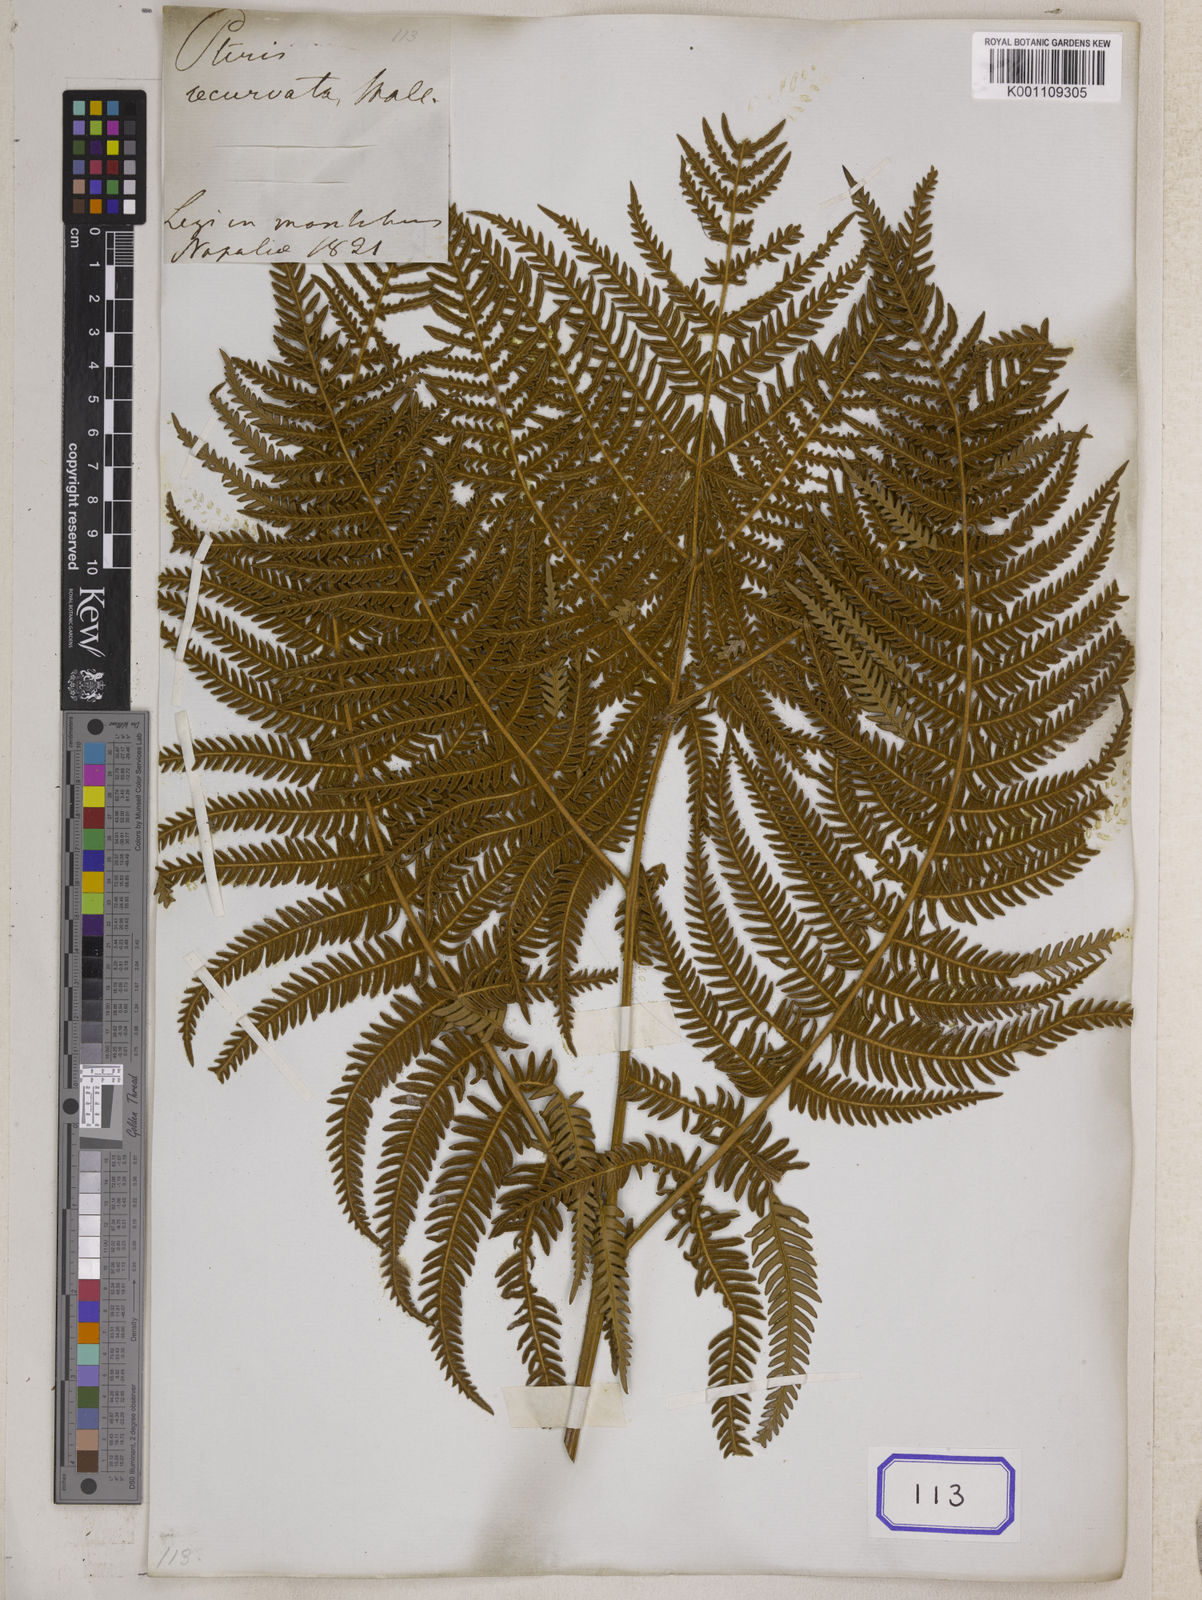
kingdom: Plantae
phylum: Tracheophyta
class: Polypodiopsida
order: Polypodiales
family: Dennstaedtiaceae
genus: Pteridium
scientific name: Pteridium aquilinum
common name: Bracken
